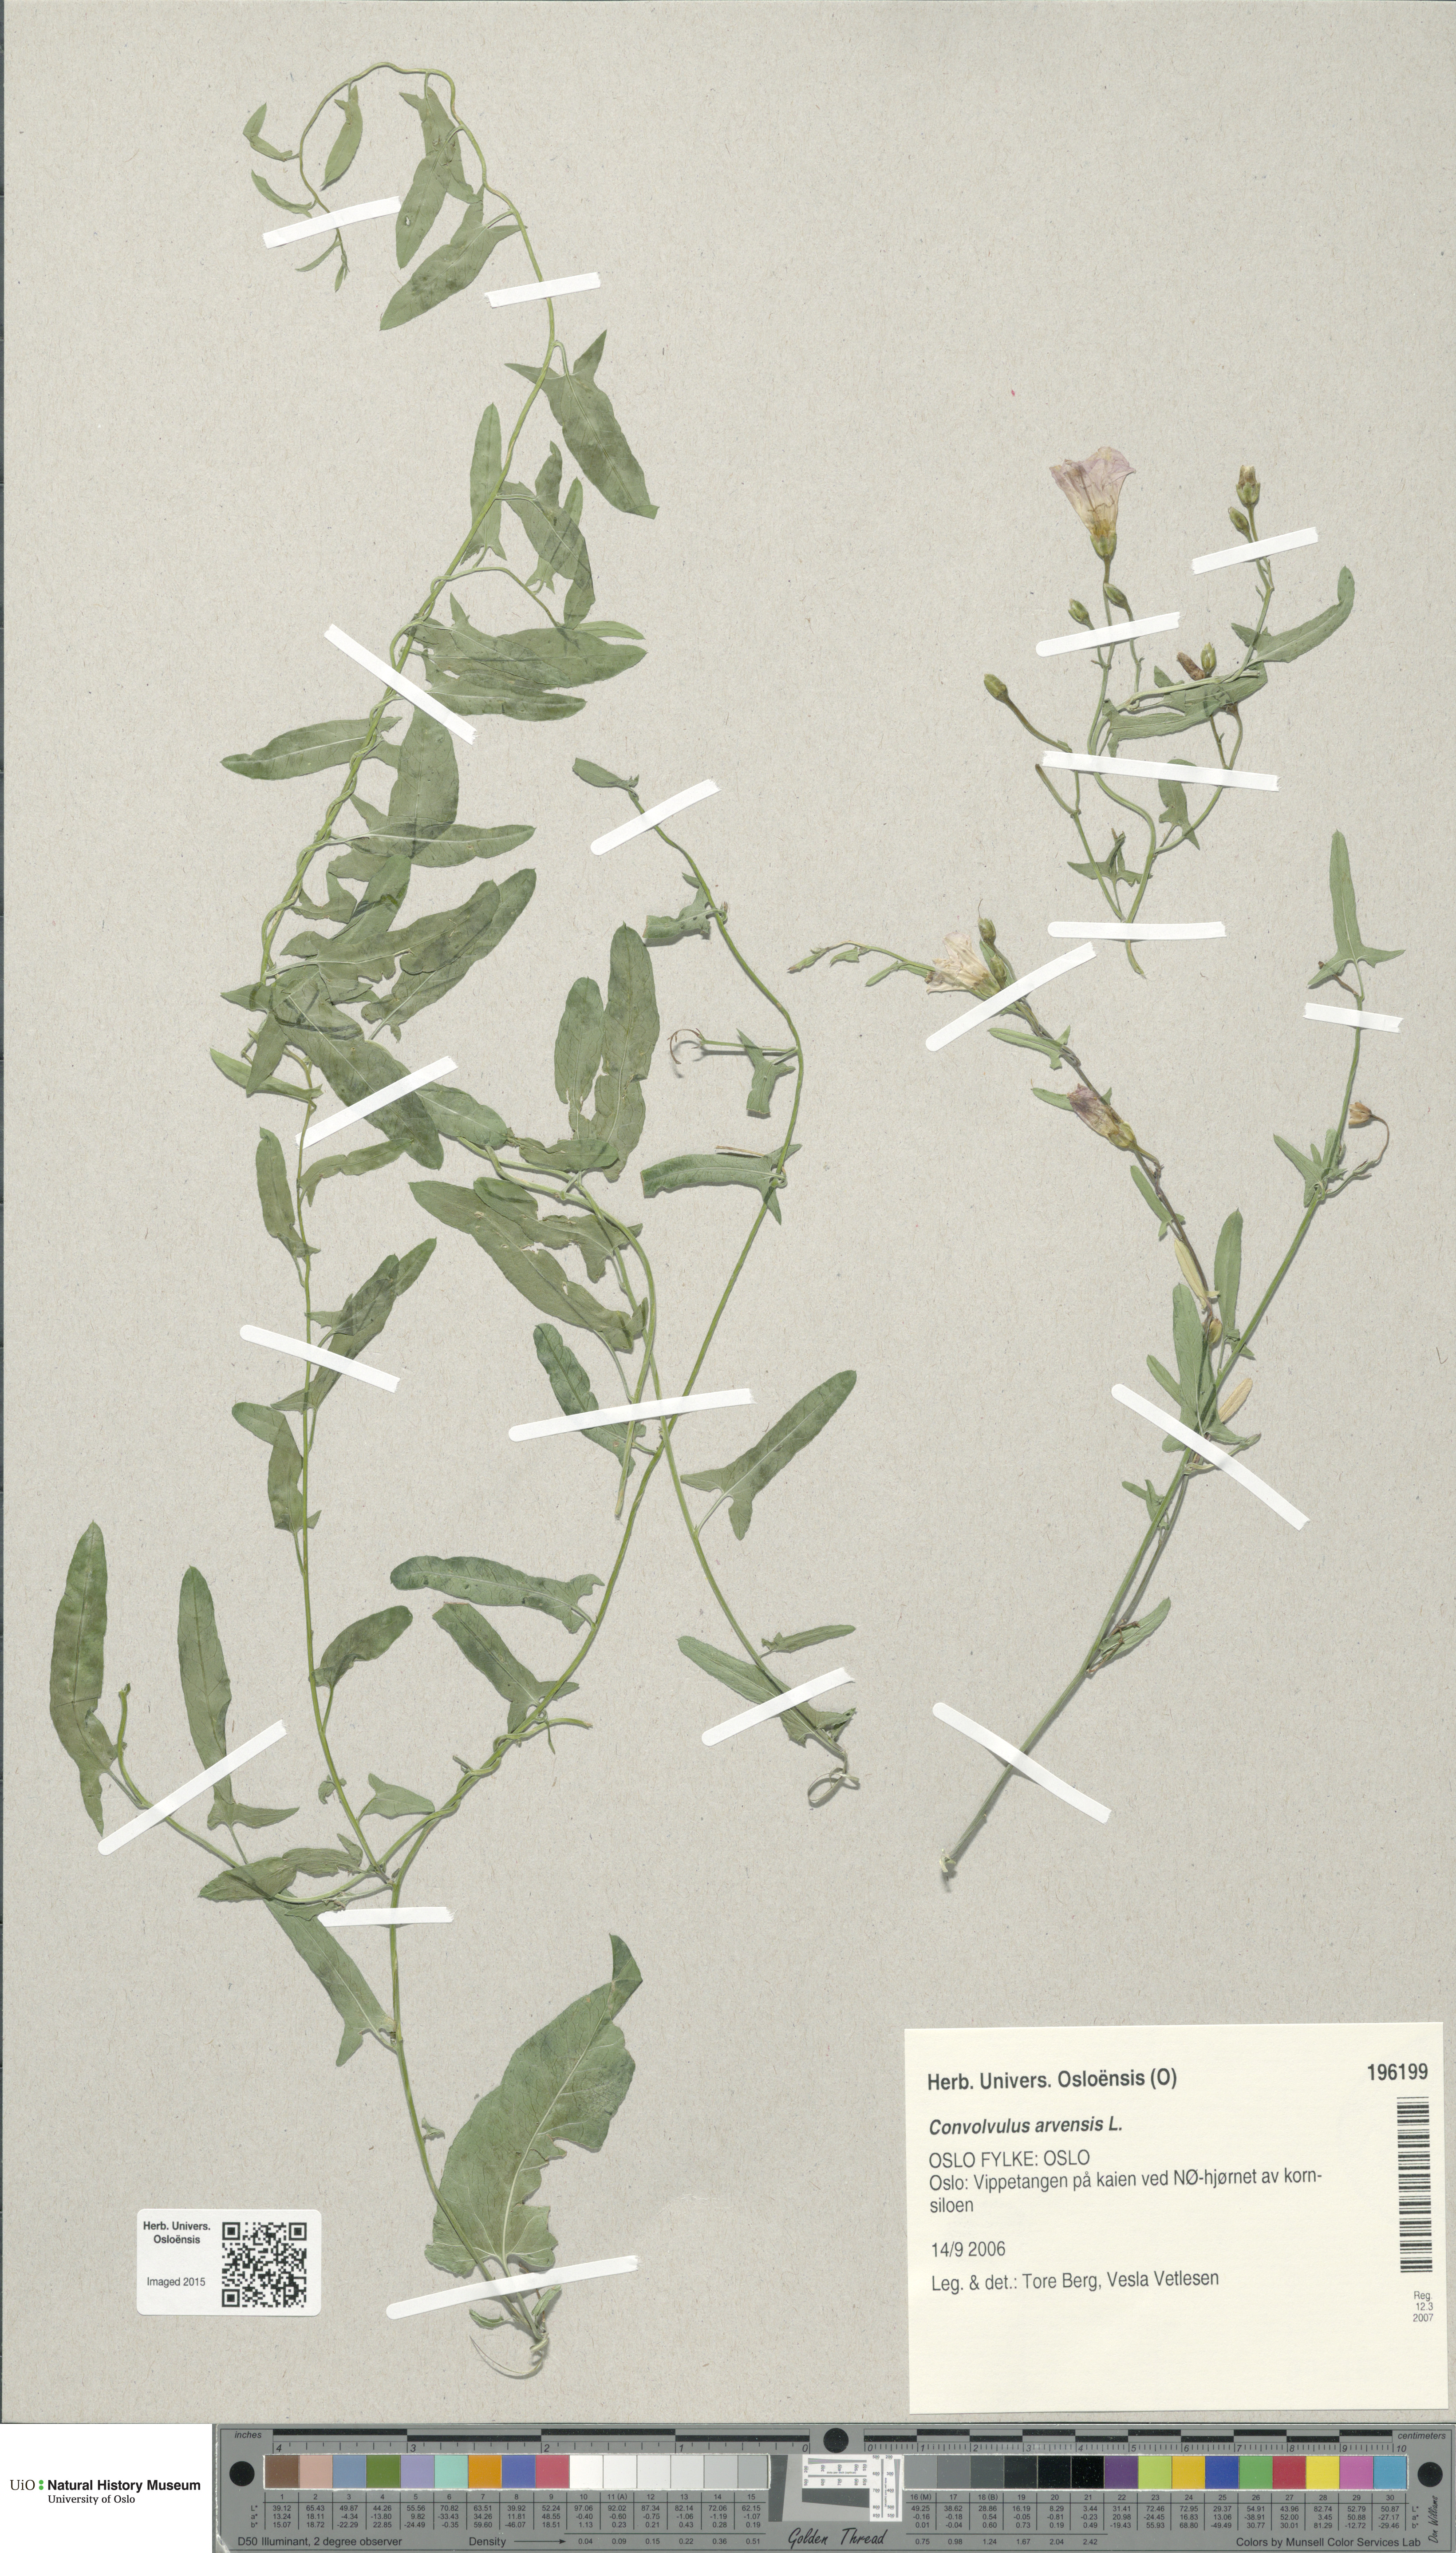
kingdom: Plantae
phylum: Tracheophyta
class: Magnoliopsida
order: Solanales
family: Convolvulaceae
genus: Convolvulus
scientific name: Convolvulus arvensis
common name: Field bindweed
